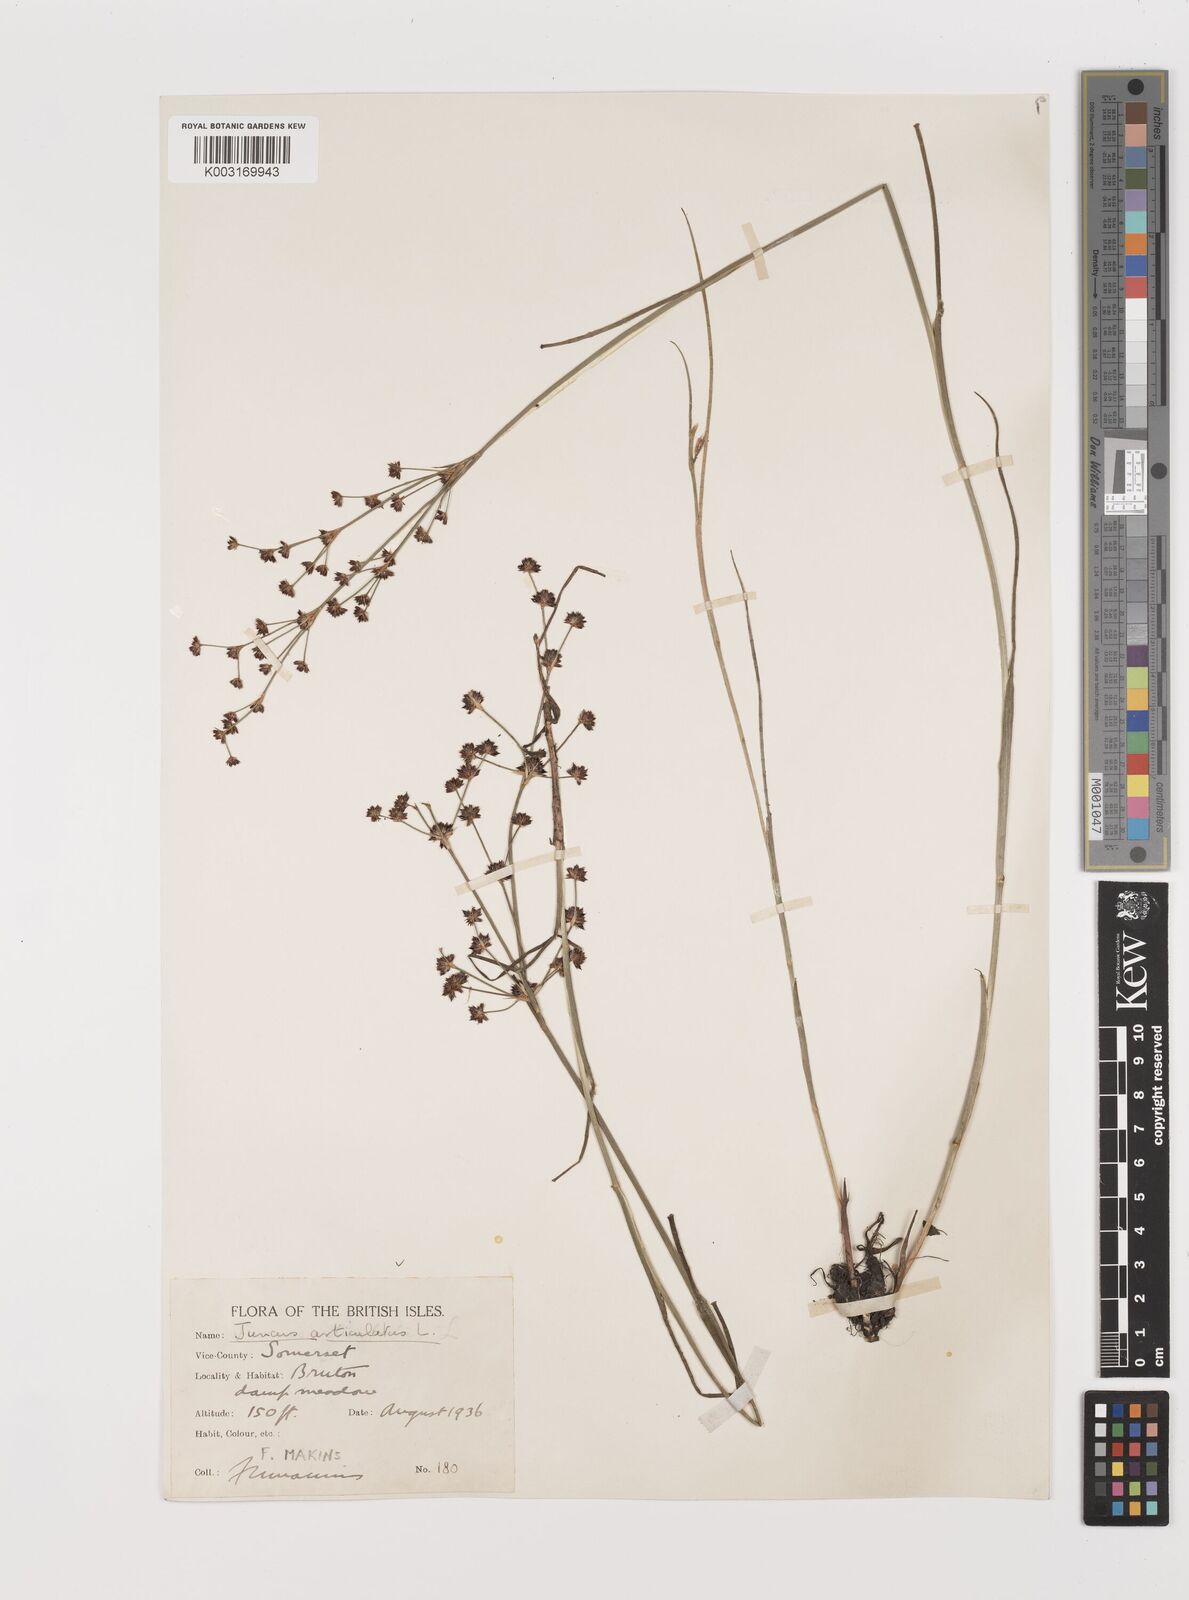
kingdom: Plantae
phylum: Tracheophyta
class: Liliopsida
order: Poales
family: Juncaceae
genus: Juncus
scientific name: Juncus articulatus
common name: Jointed rush
